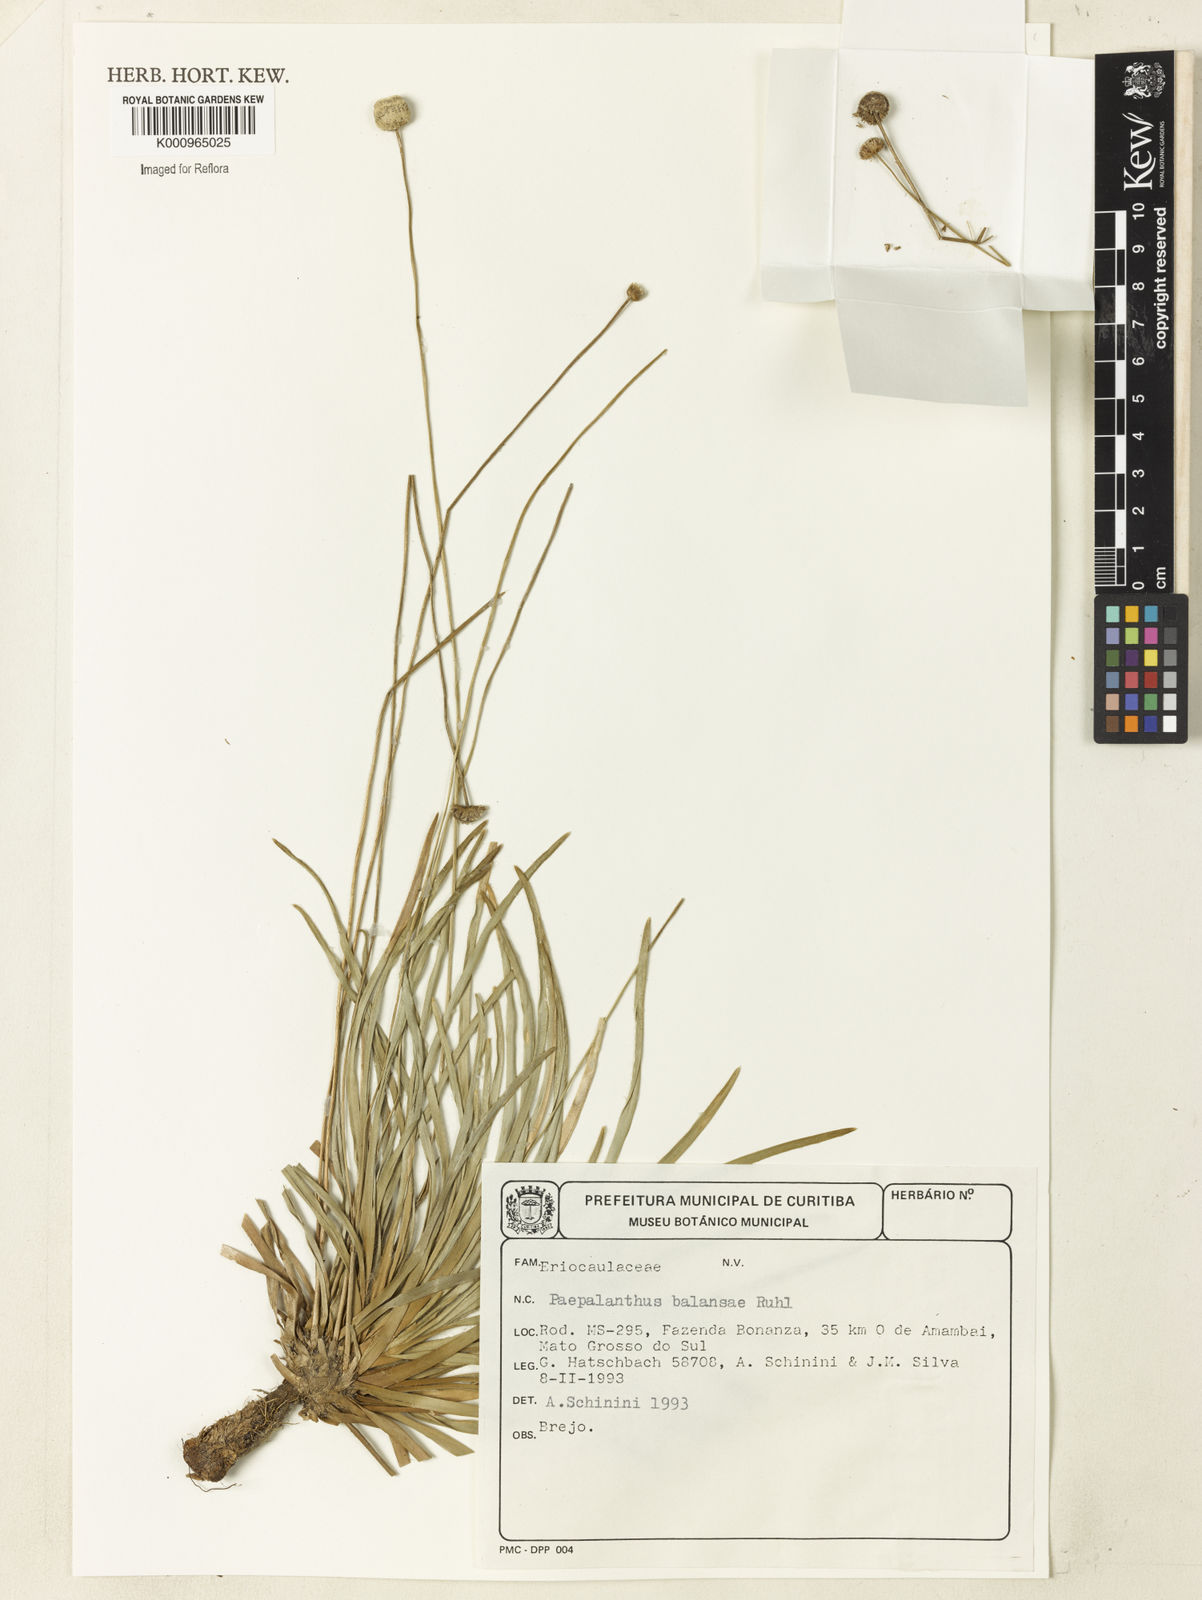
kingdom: Plantae
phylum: Tracheophyta
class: Liliopsida
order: Poales
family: Eriocaulaceae
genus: Paepalanthus
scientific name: Paepalanthus balansae
